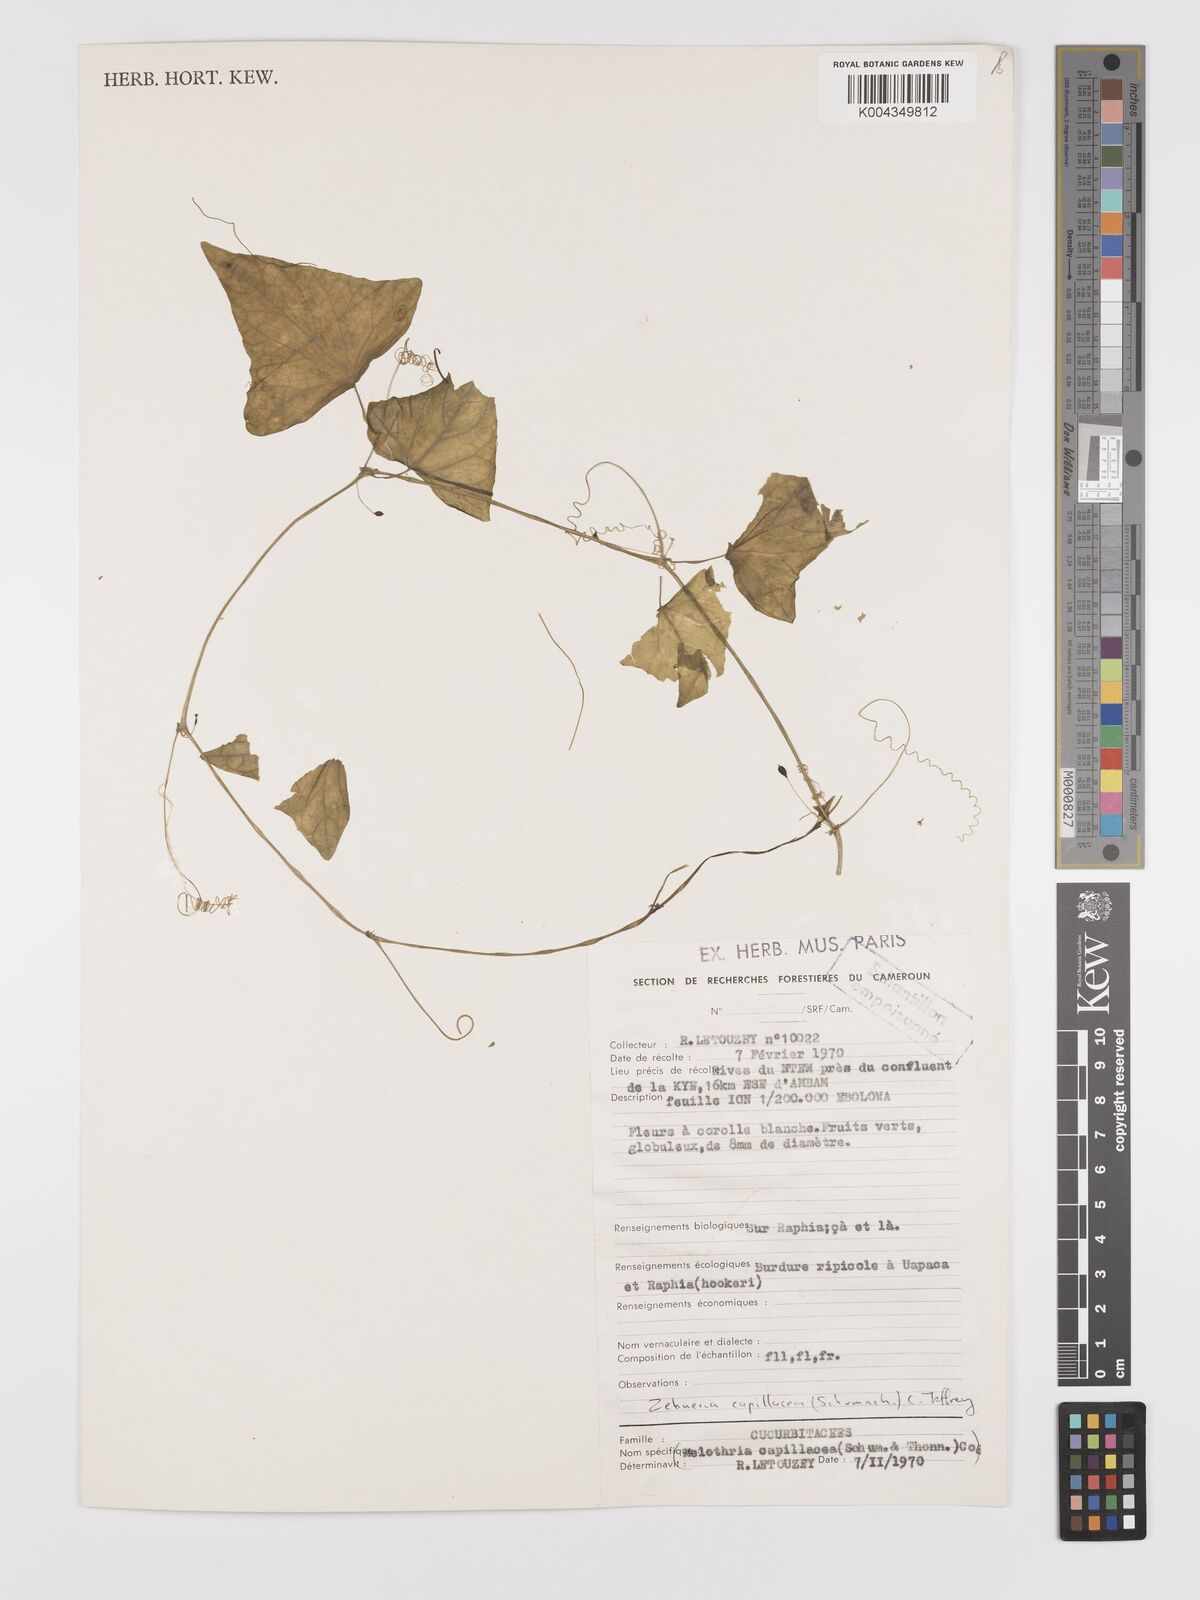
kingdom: Plantae
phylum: Tracheophyta
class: Magnoliopsida
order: Cucurbitales
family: Cucurbitaceae
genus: Zehneria
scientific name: Zehneria capillacea
